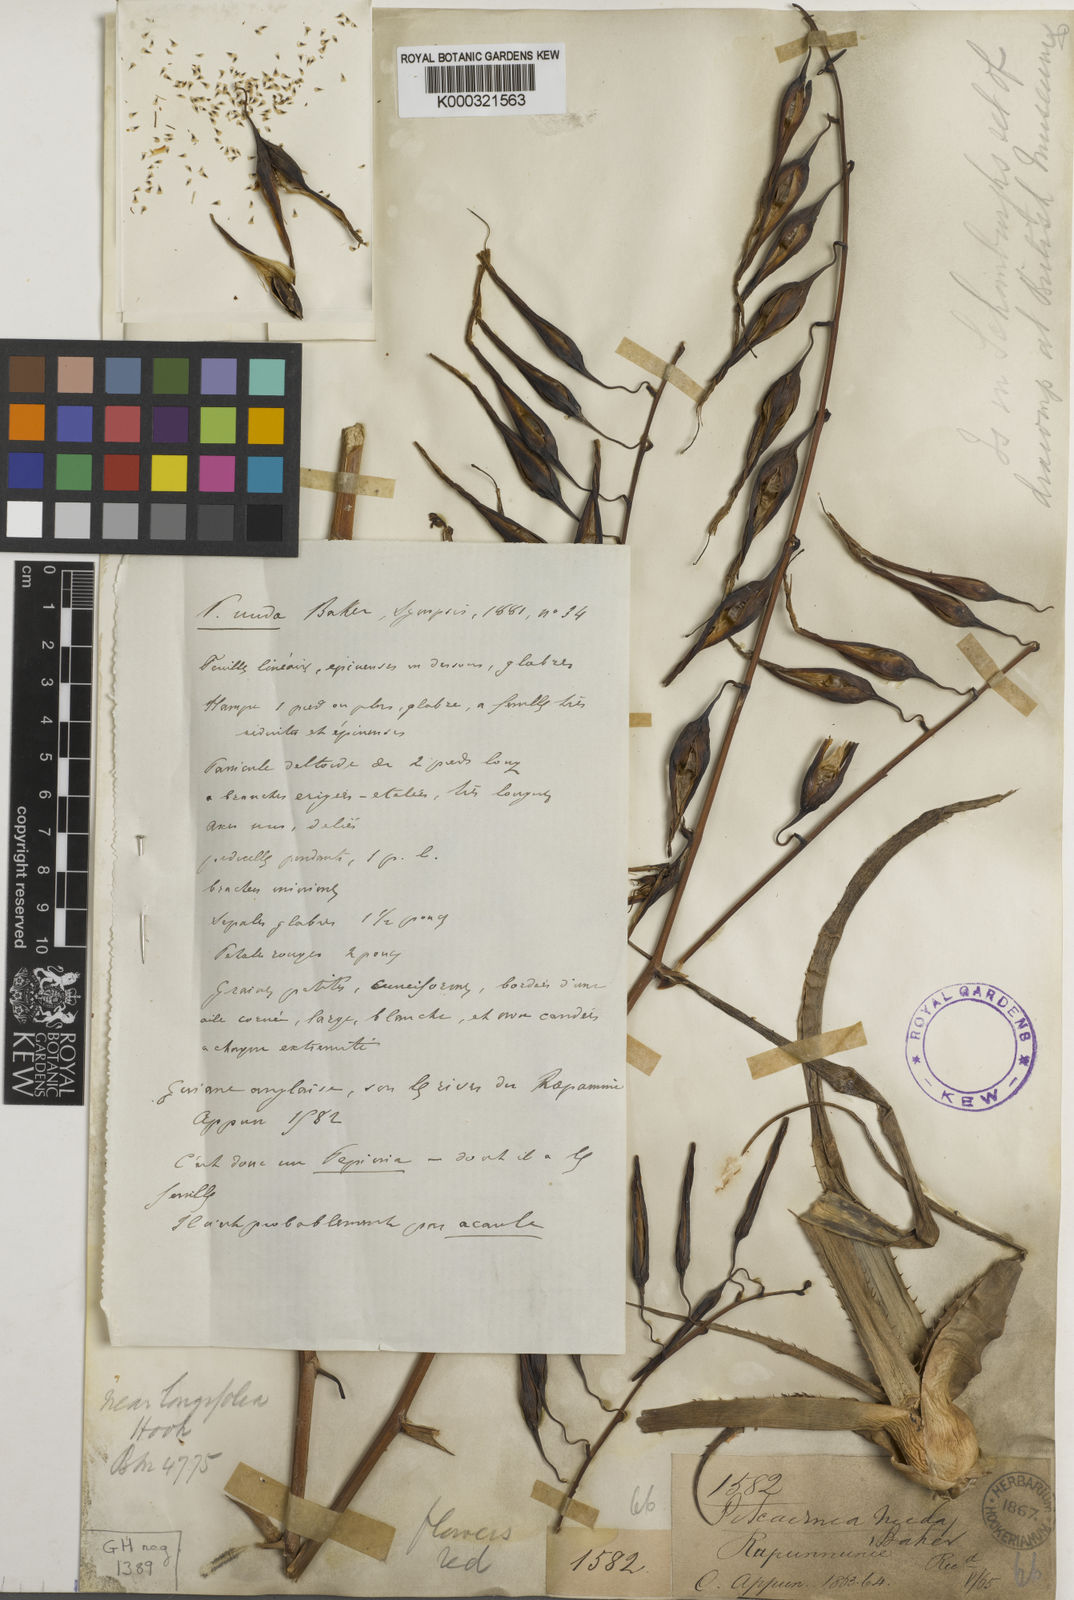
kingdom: Plantae
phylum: Tracheophyta
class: Liliopsida
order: Poales
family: Bromeliaceae
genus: Pitcairnia
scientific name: Pitcairnia nuda
